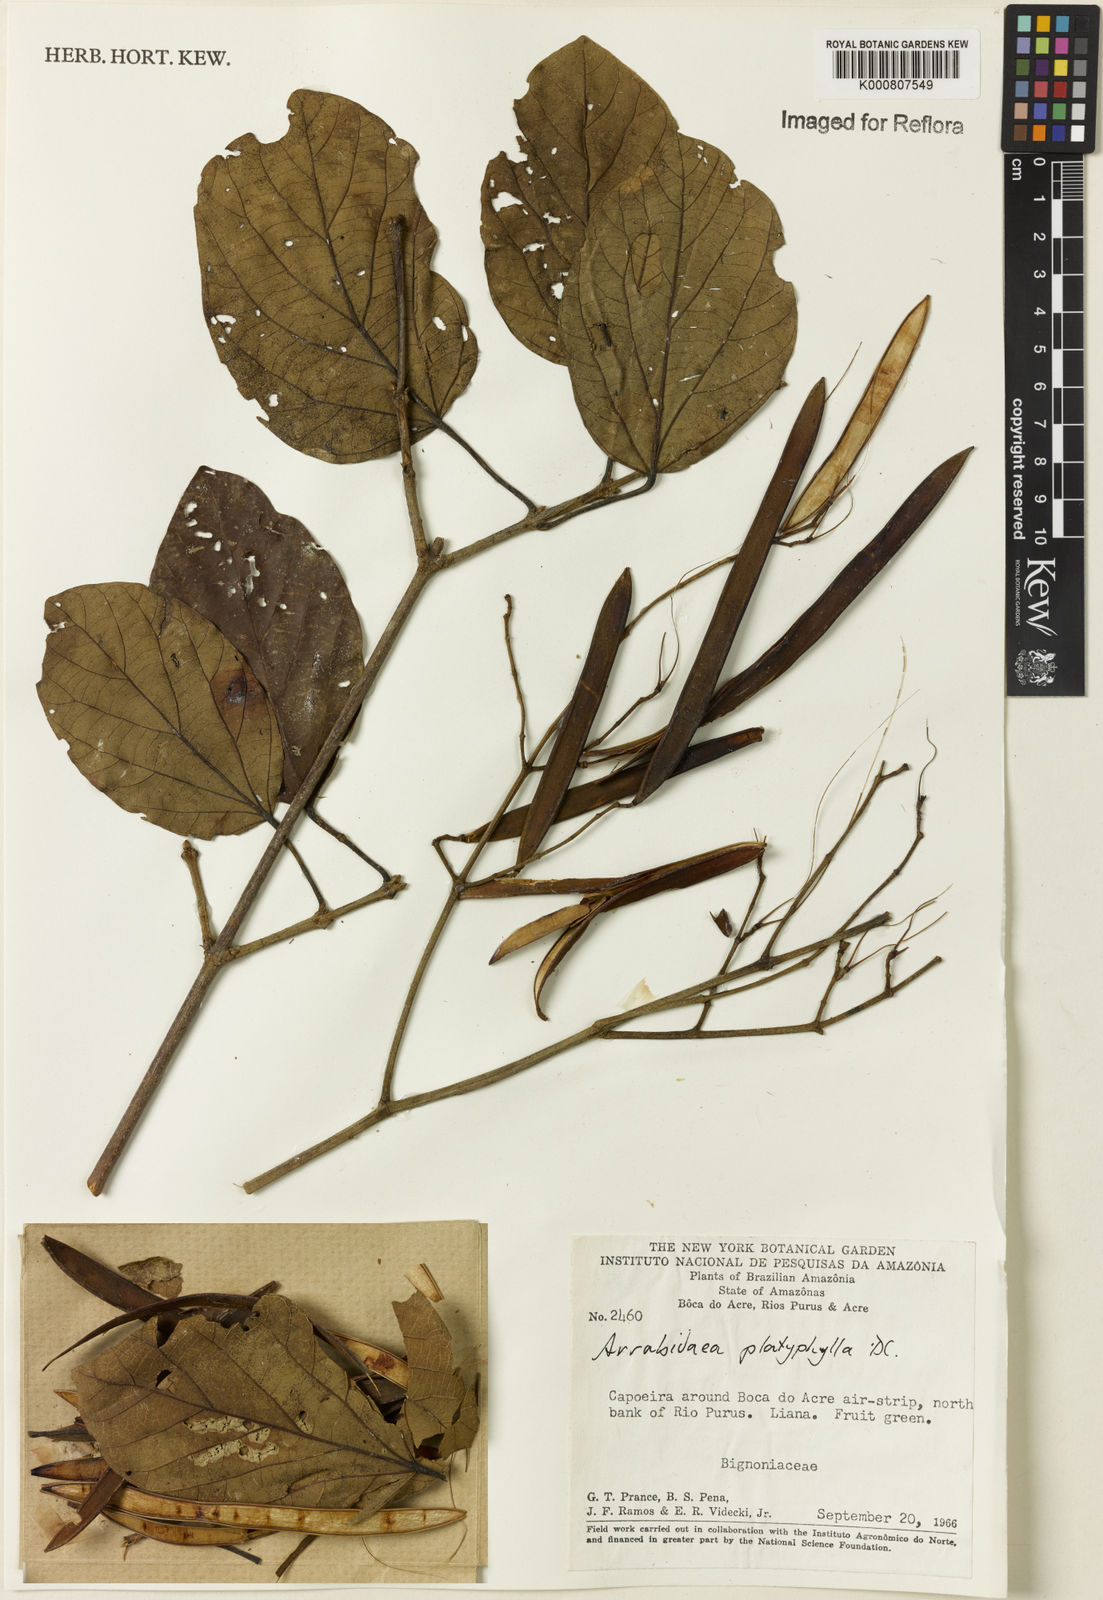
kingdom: Plantae
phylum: Tracheophyta
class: Magnoliopsida
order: Lamiales
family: Bignoniaceae
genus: Xylophragma
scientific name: Xylophragma platyphyllum
